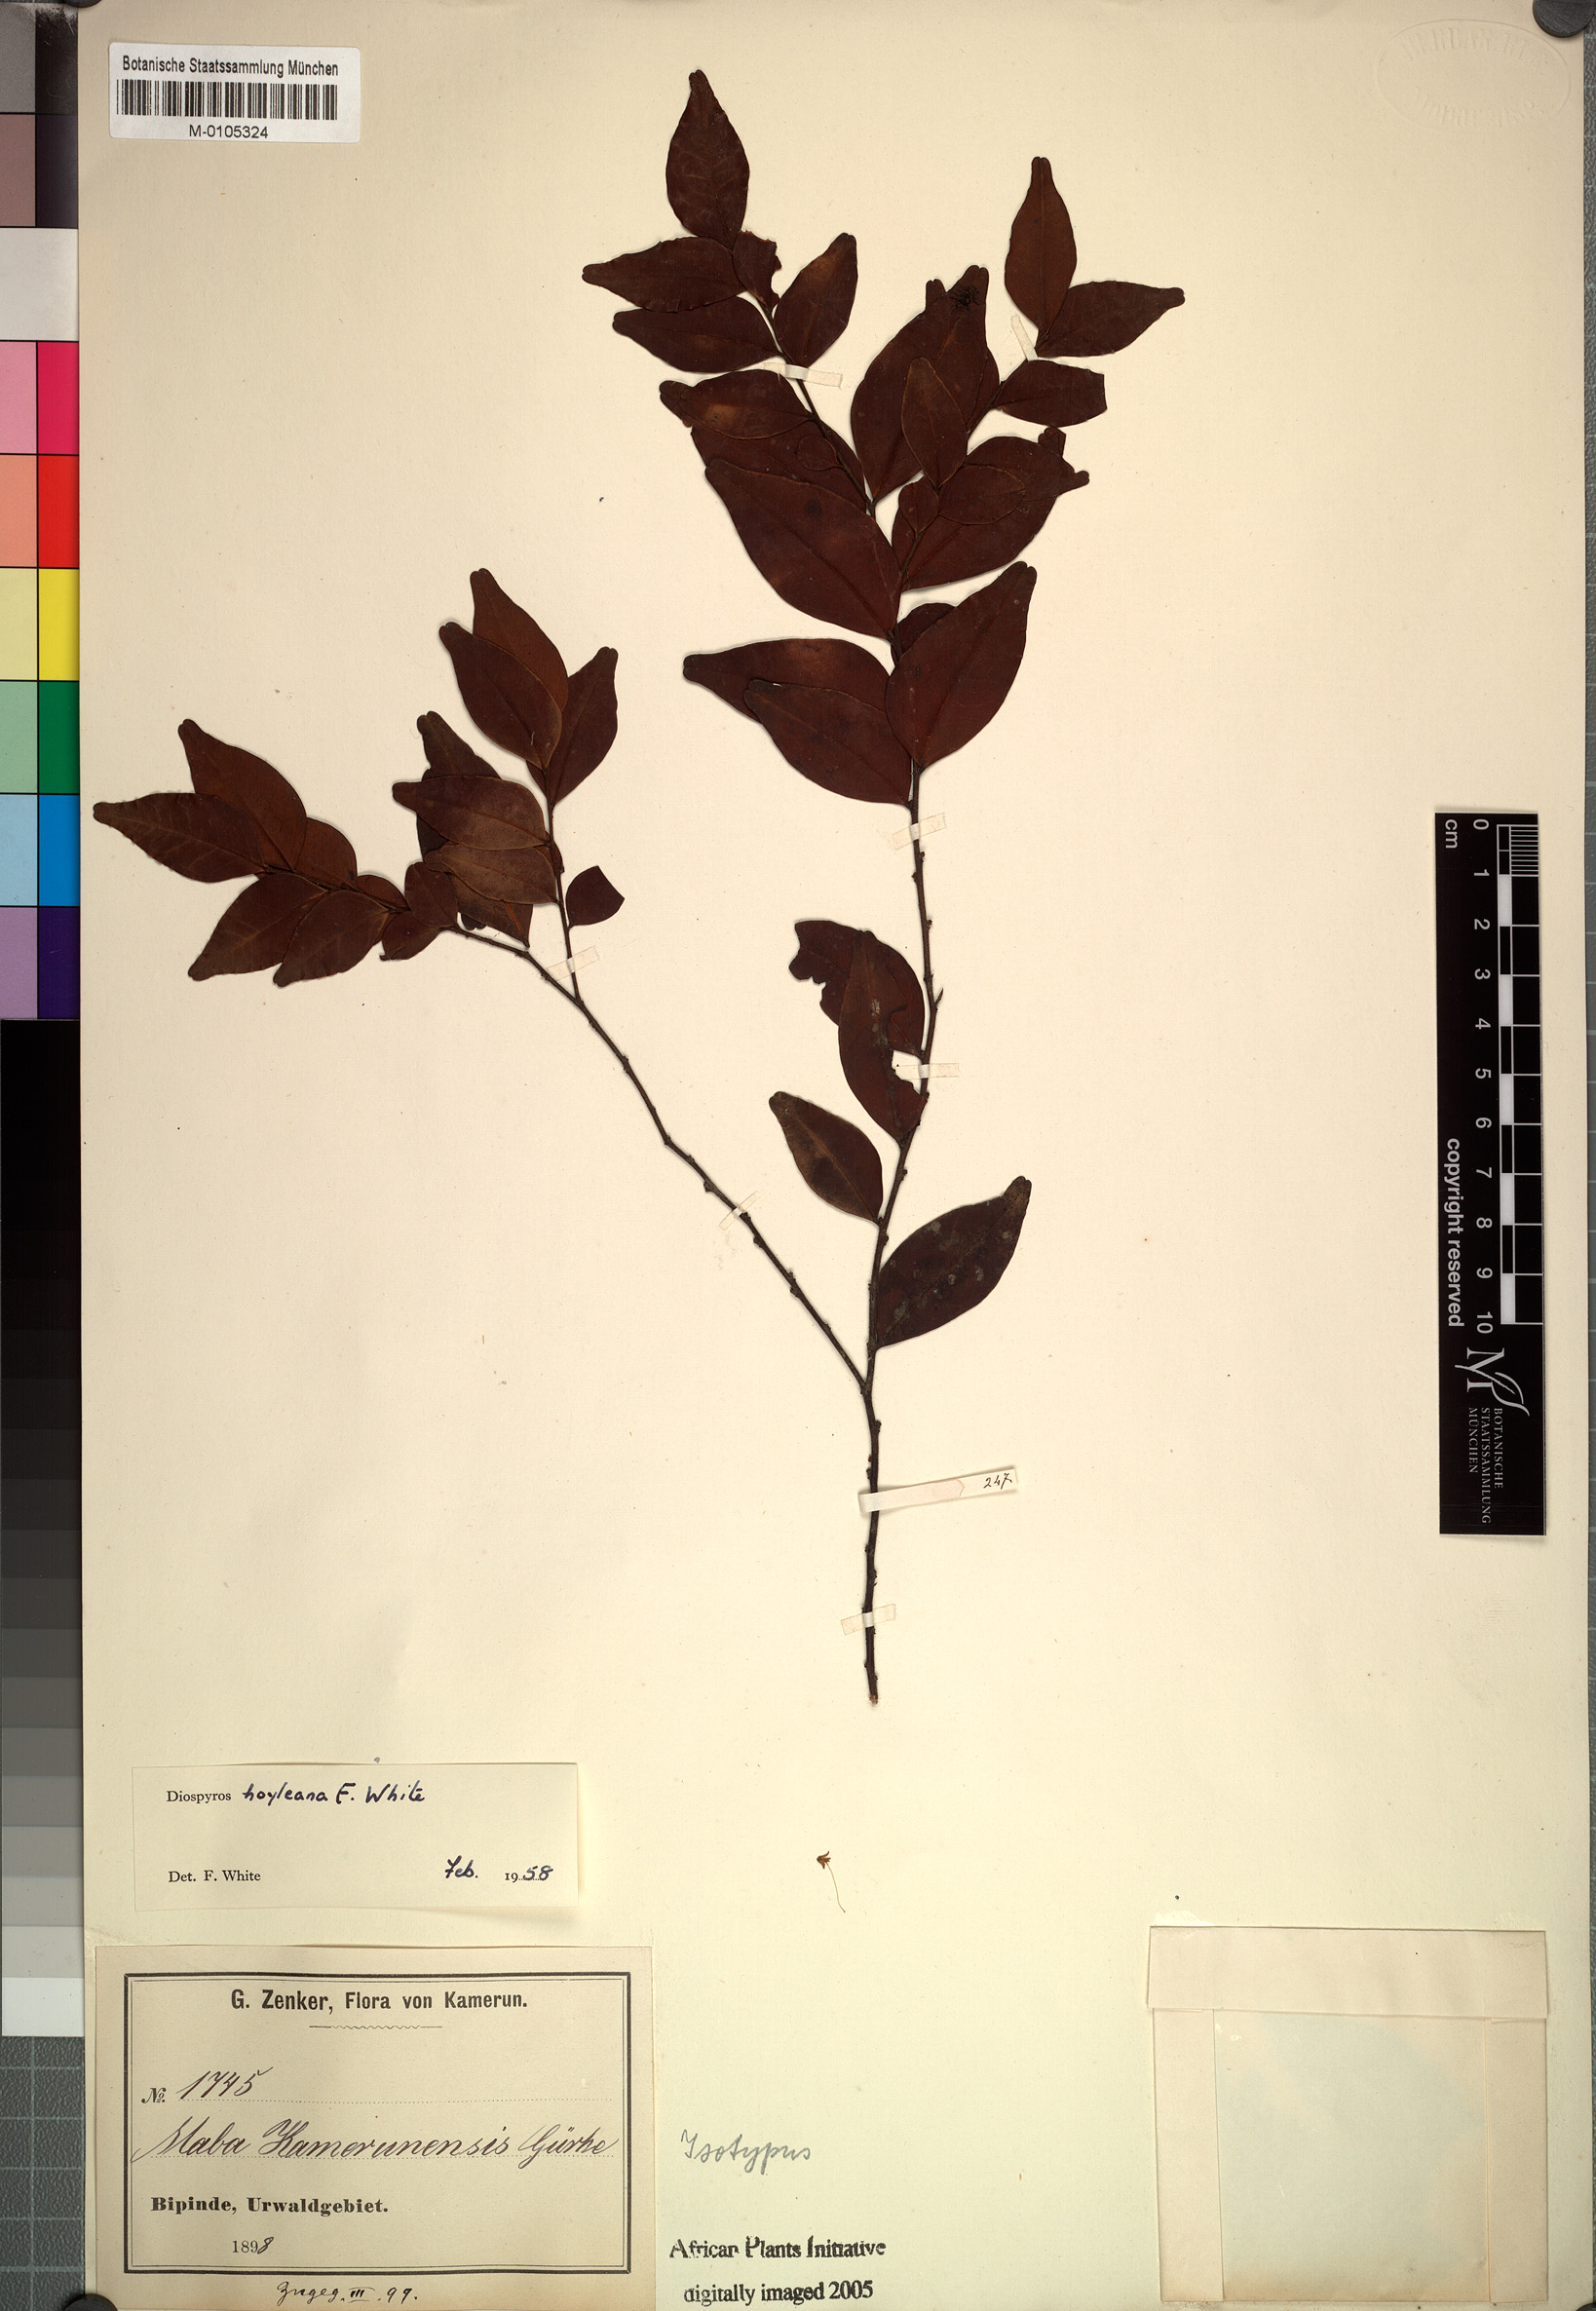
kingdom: Plantae
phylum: Tracheophyta
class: Magnoliopsida
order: Ericales
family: Ebenaceae
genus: Diospyros
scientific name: Diospyros hoyleana
